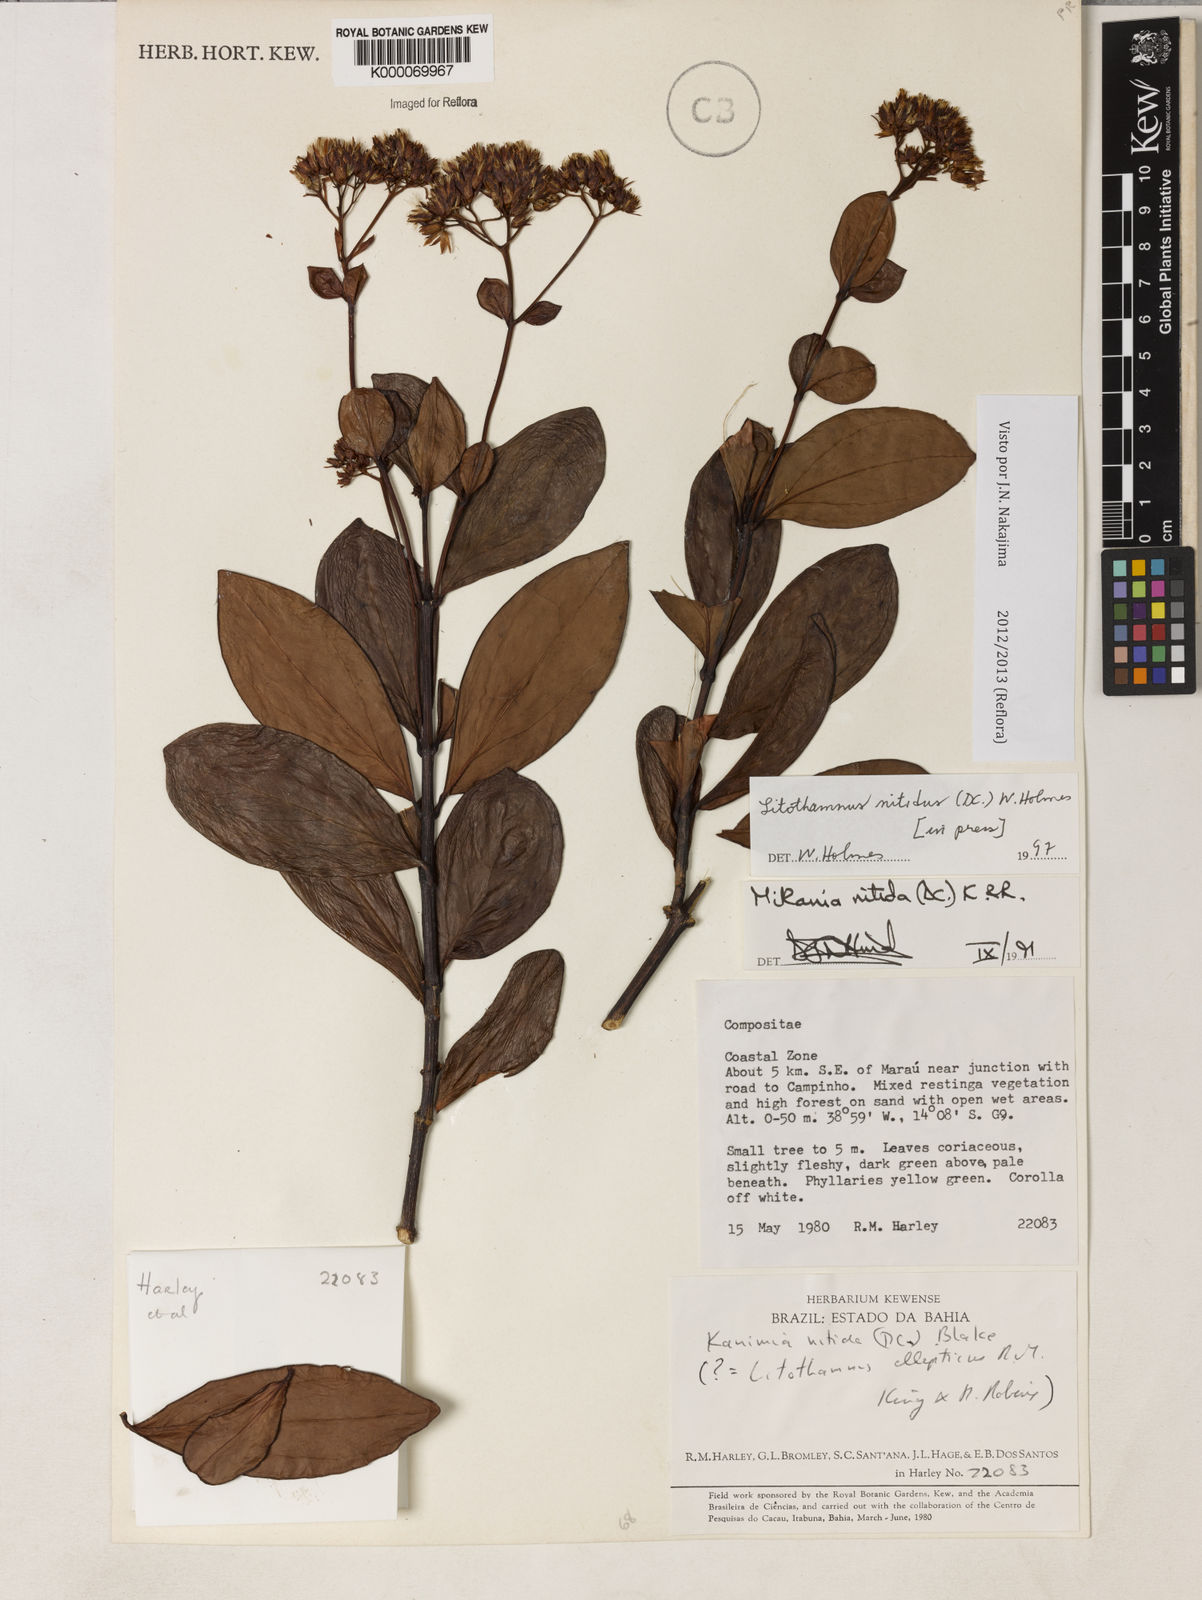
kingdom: Plantae
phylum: Tracheophyta
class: Magnoliopsida
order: Asterales
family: Asteraceae
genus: Litothamnus
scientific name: Litothamnus nitidus
